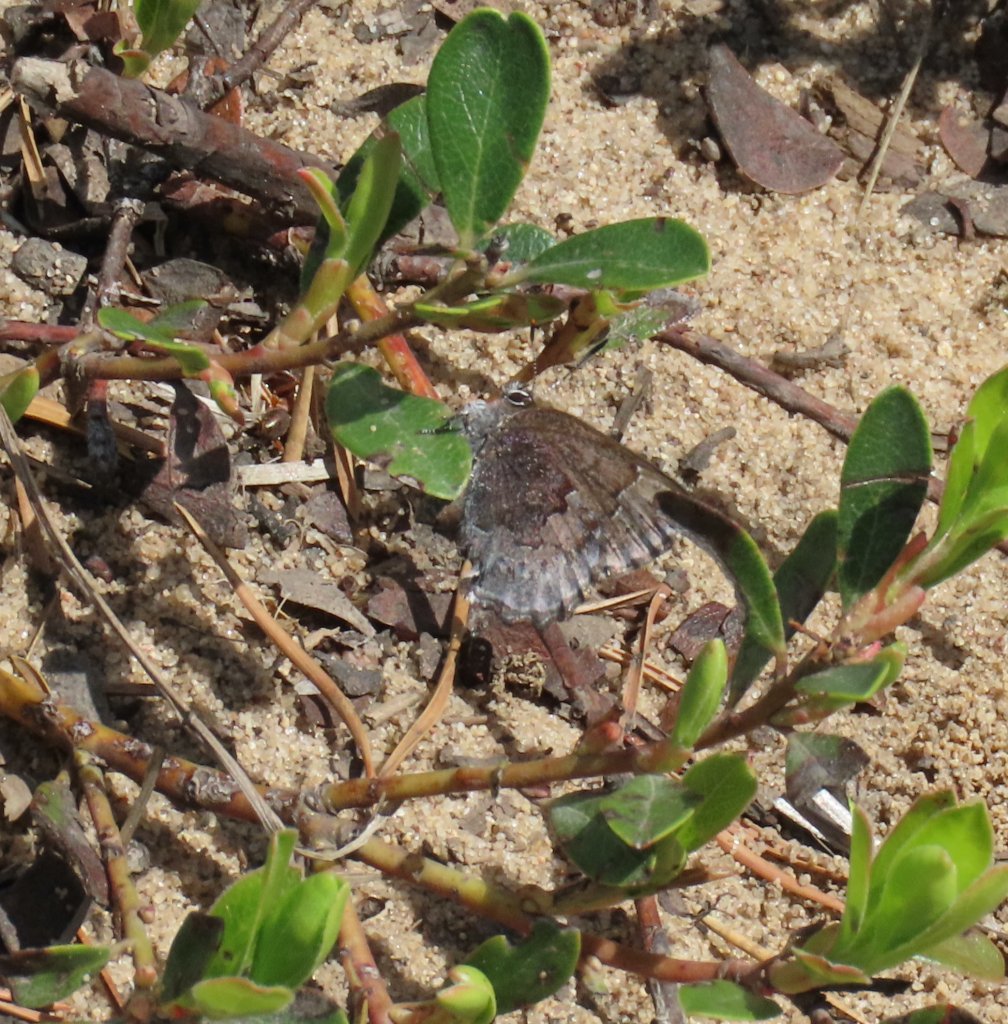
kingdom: Animalia
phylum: Arthropoda
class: Insecta
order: Lepidoptera
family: Lycaenidae
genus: Callophrys
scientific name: Callophrys polios
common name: Hoary Elfin
